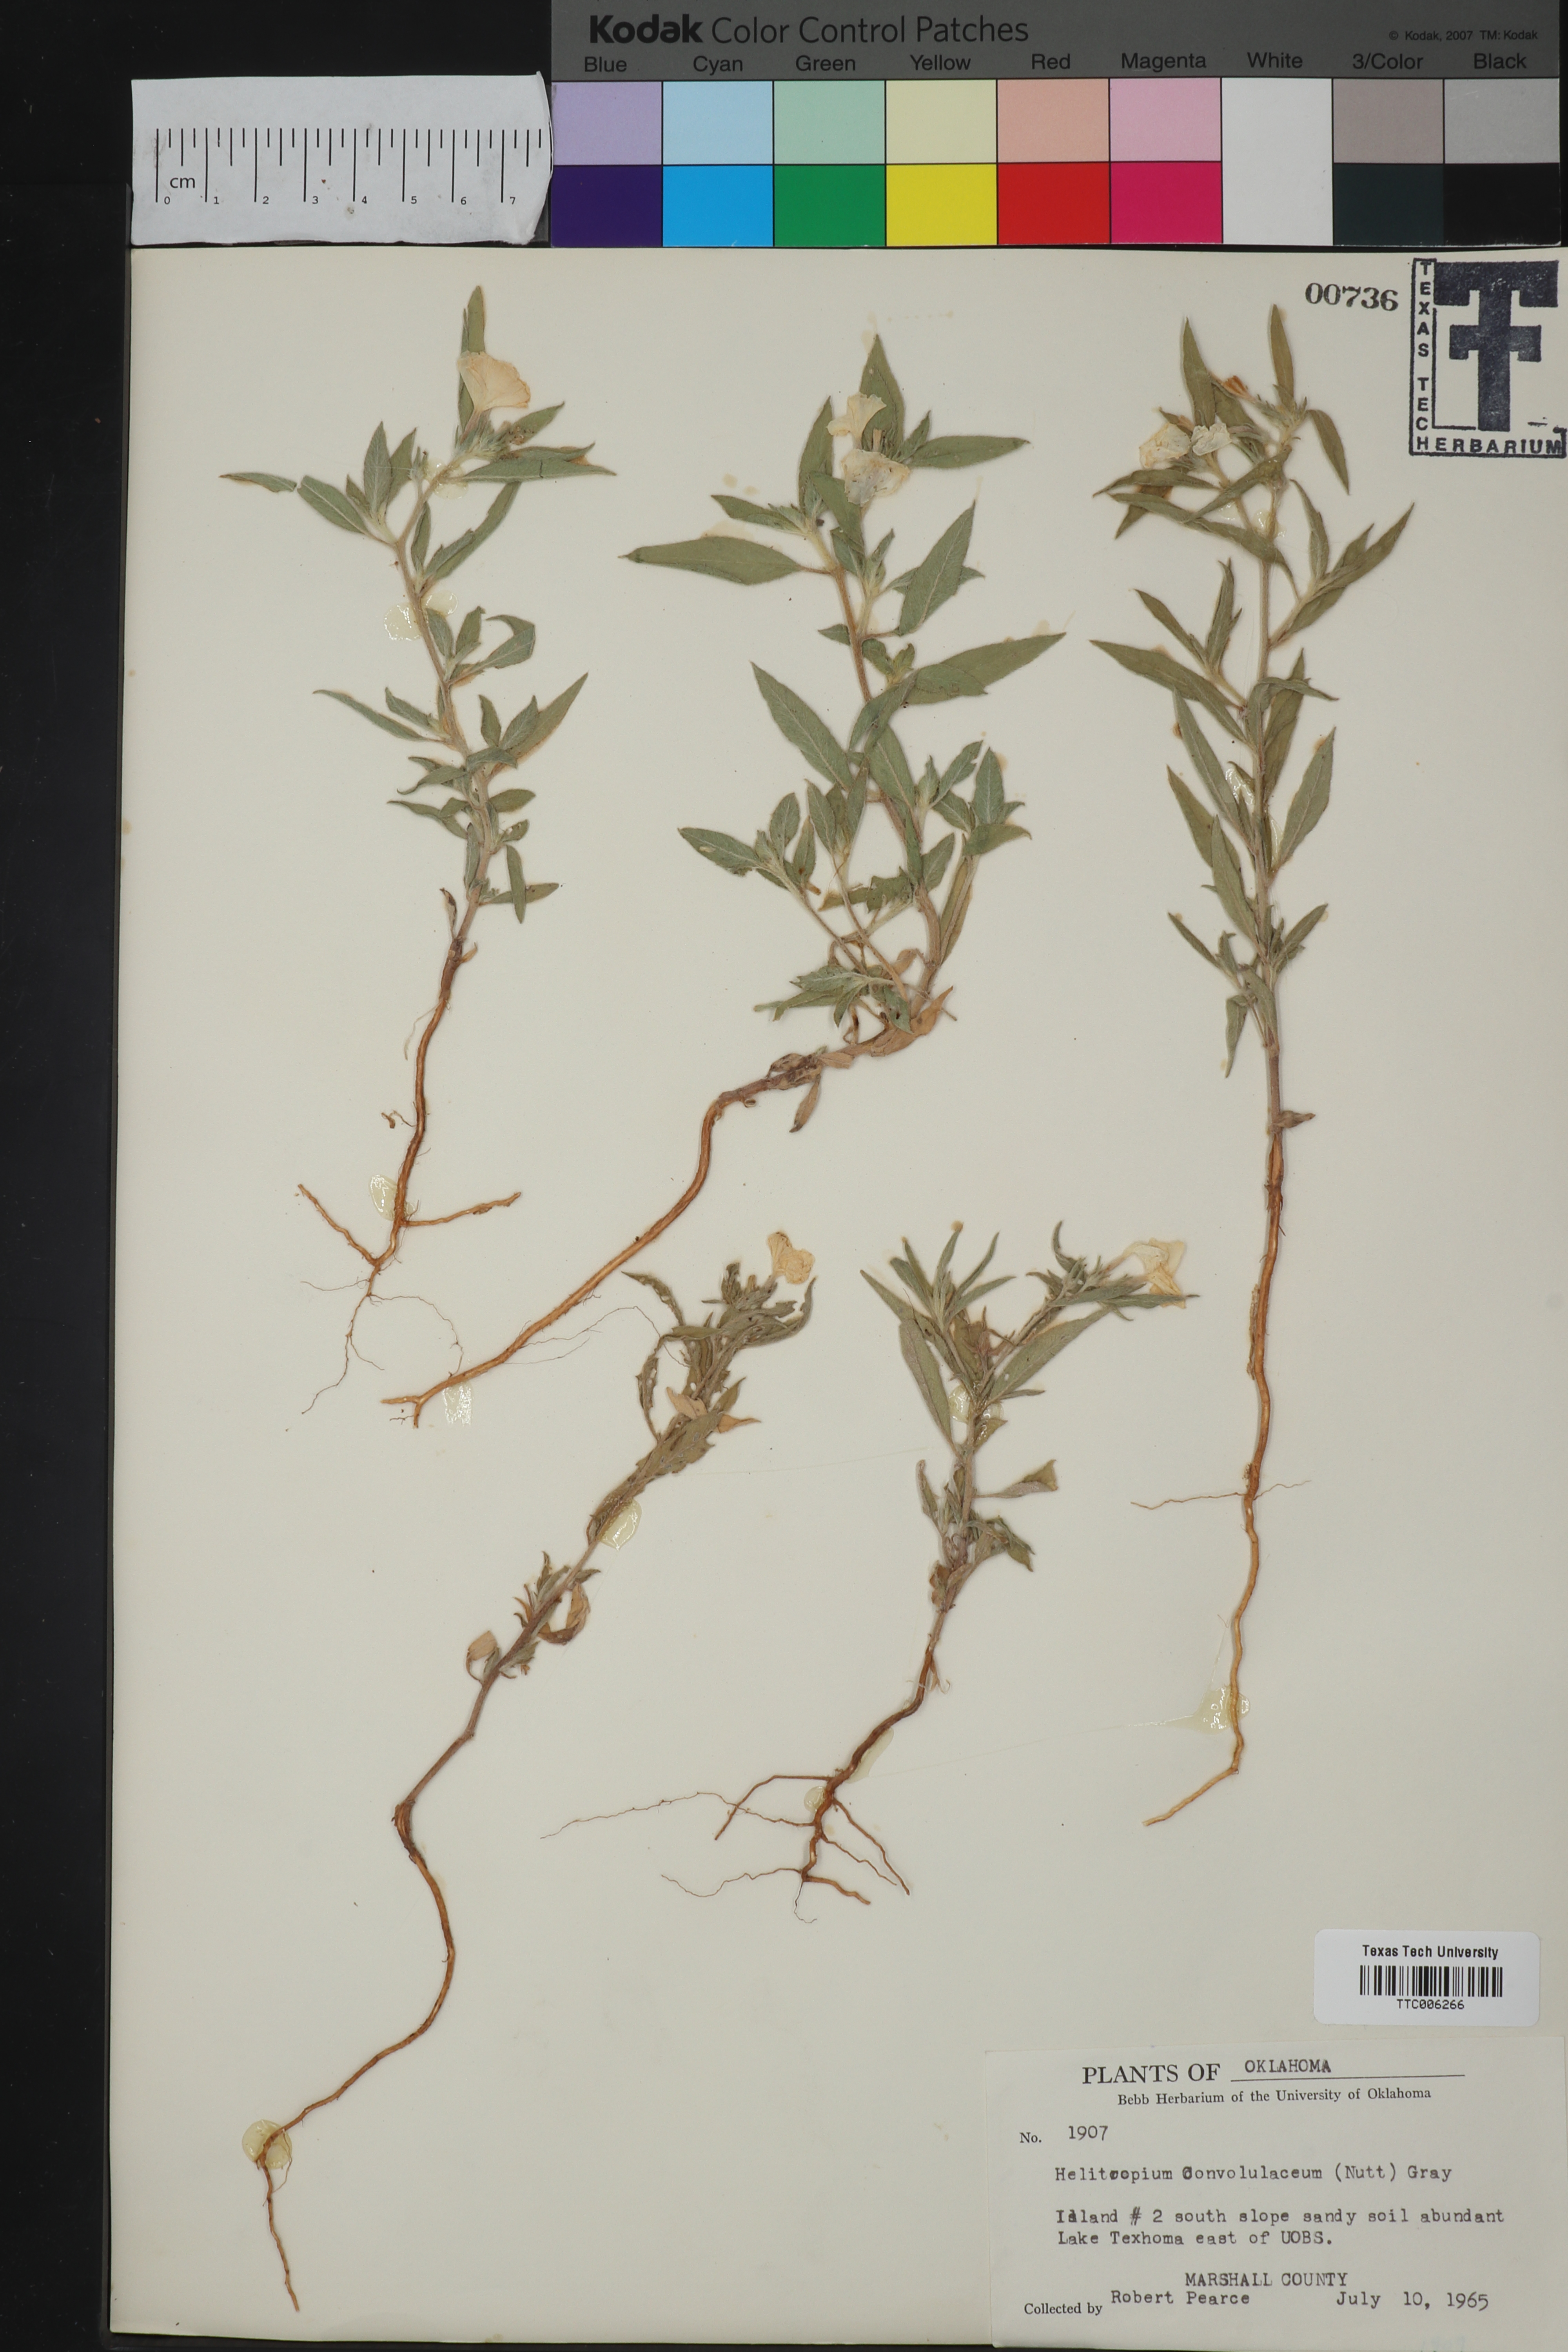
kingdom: Plantae
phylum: Tracheophyta
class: Magnoliopsida
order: Boraginales
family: Heliotropiaceae
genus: Euploca
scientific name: Euploca convolvulacea
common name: Bindweed heliotrope
